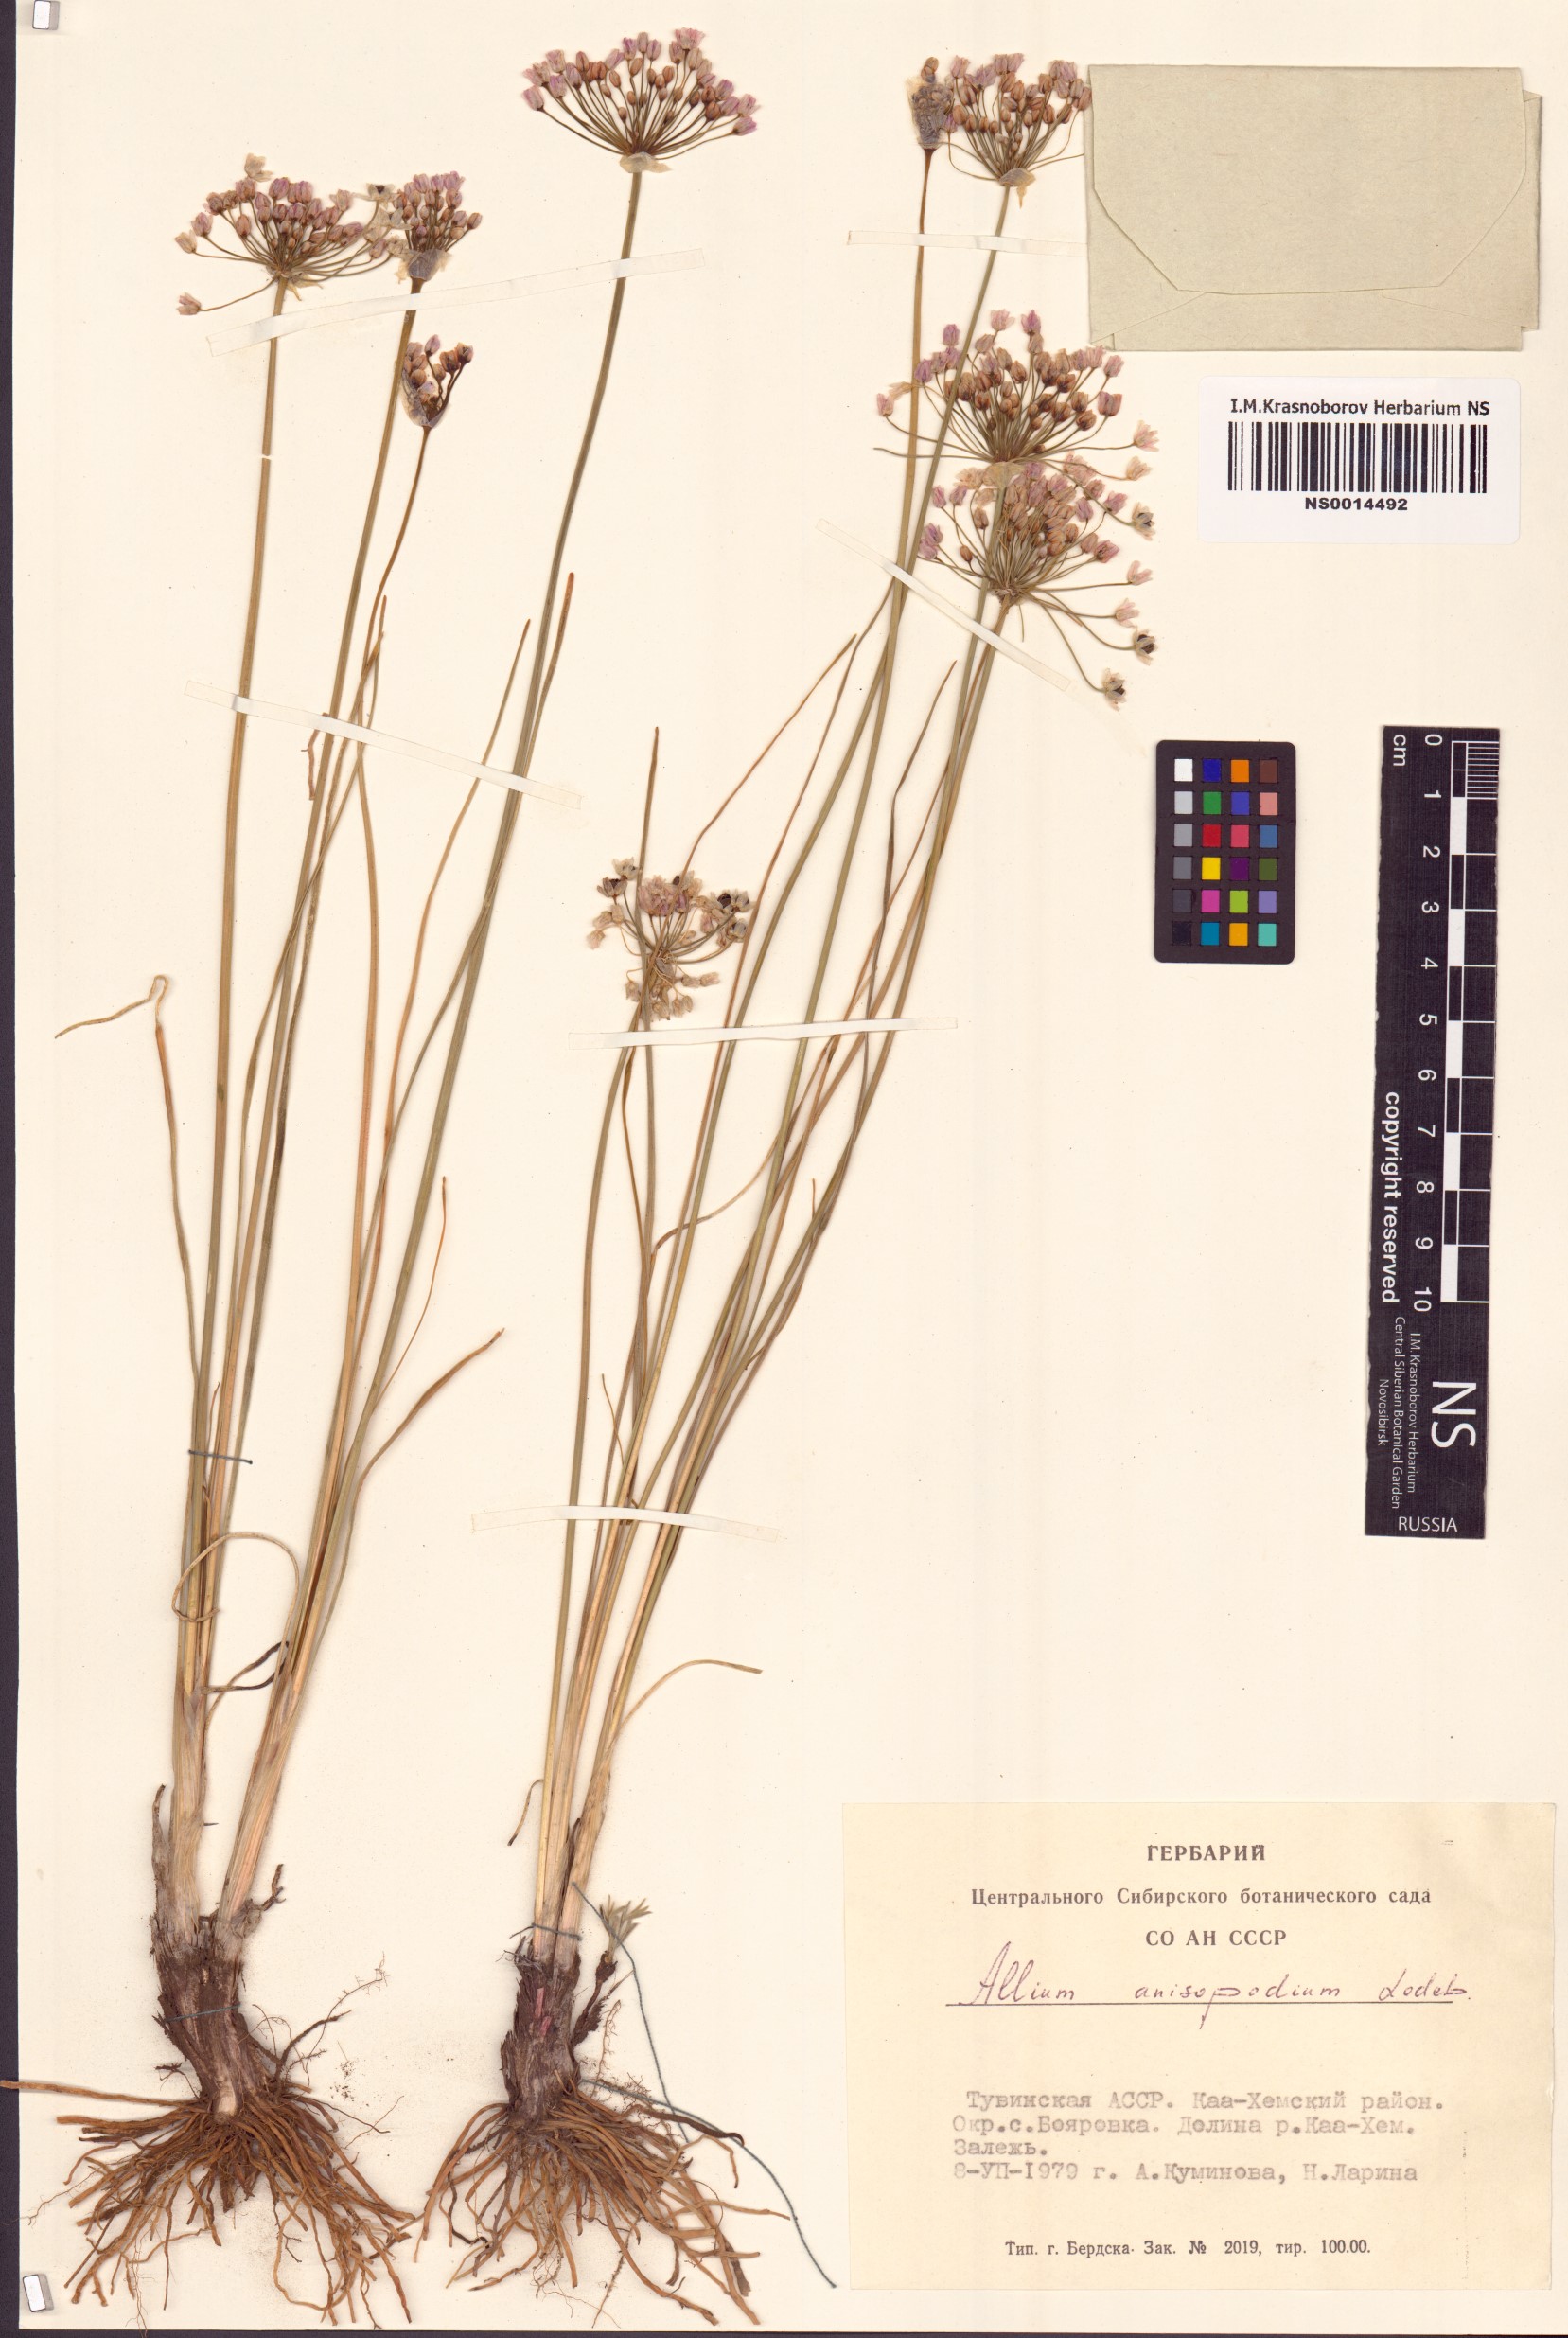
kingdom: Plantae
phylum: Tracheophyta
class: Liliopsida
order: Asparagales
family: Amaryllidaceae
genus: Allium
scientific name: Allium anisopodium
